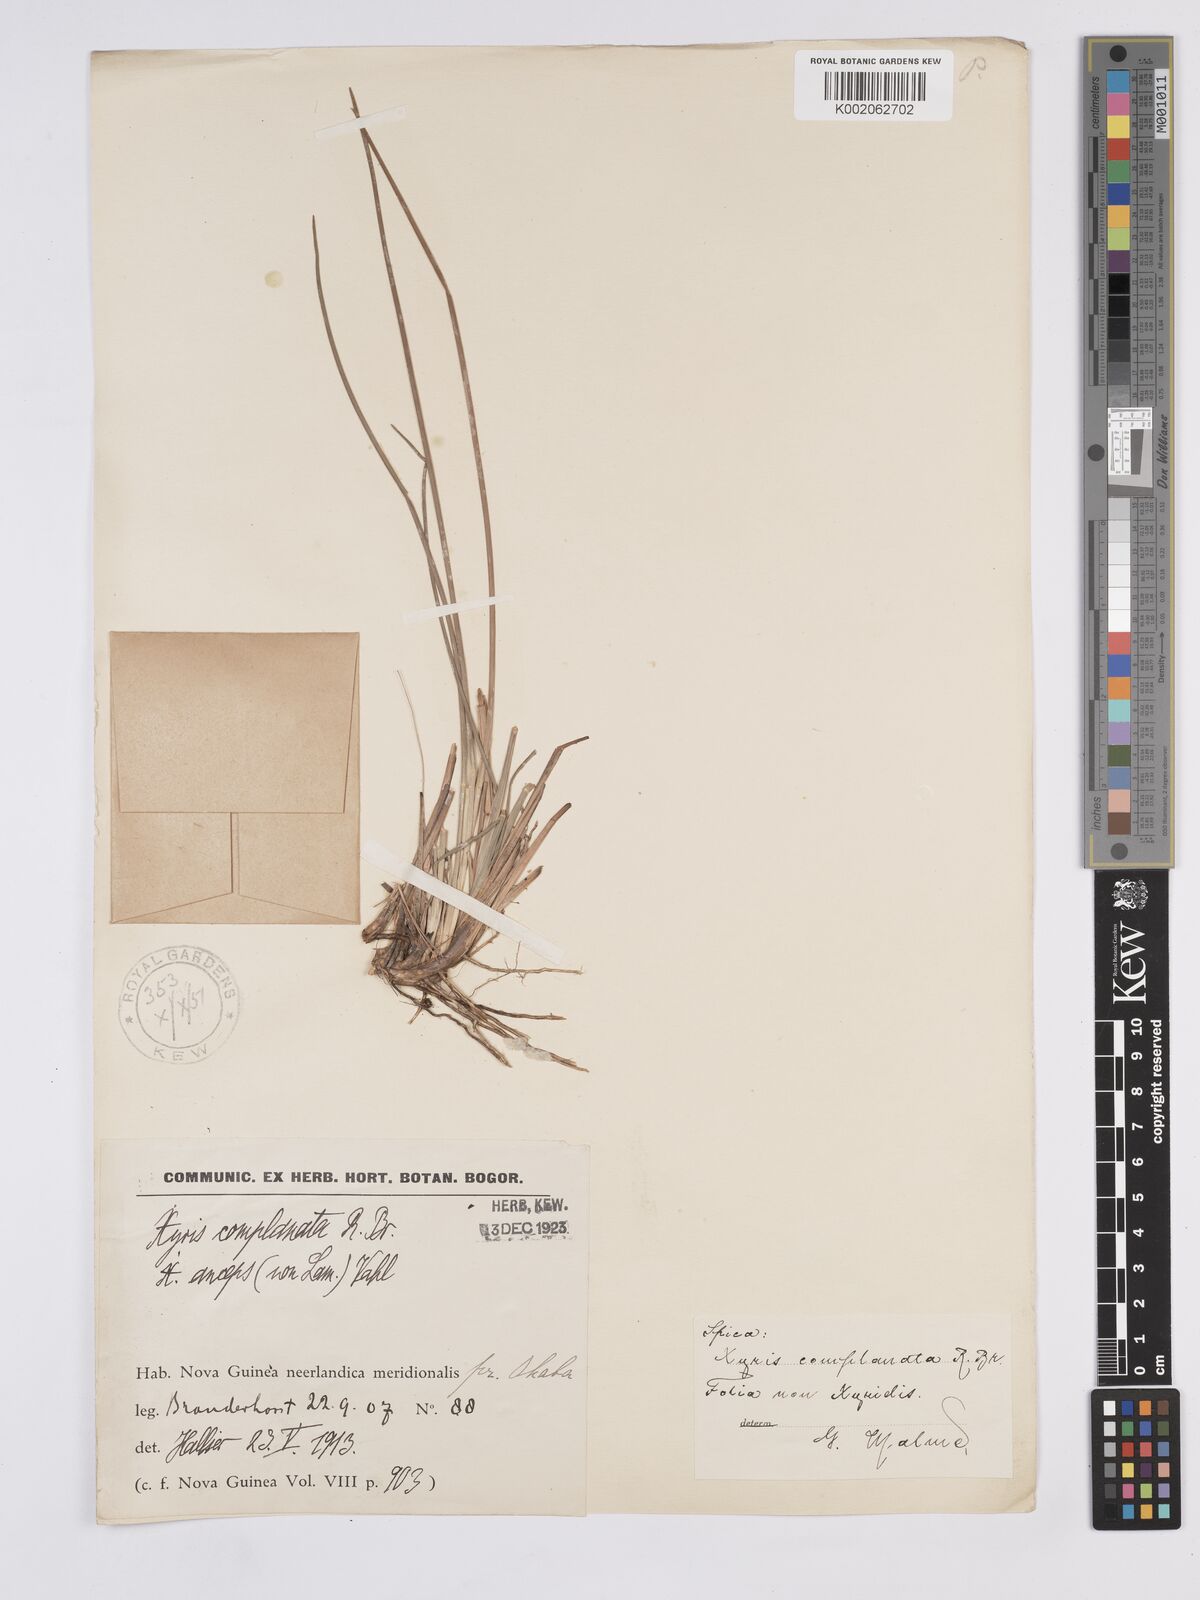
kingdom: Plantae
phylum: Tracheophyta
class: Liliopsida
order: Poales
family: Xyridaceae
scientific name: Xyridaceae
